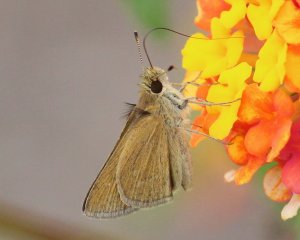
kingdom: Animalia
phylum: Arthropoda
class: Insecta
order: Lepidoptera
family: Hesperiidae
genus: Nastra
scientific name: Nastra julia
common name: Julia's Skipper
